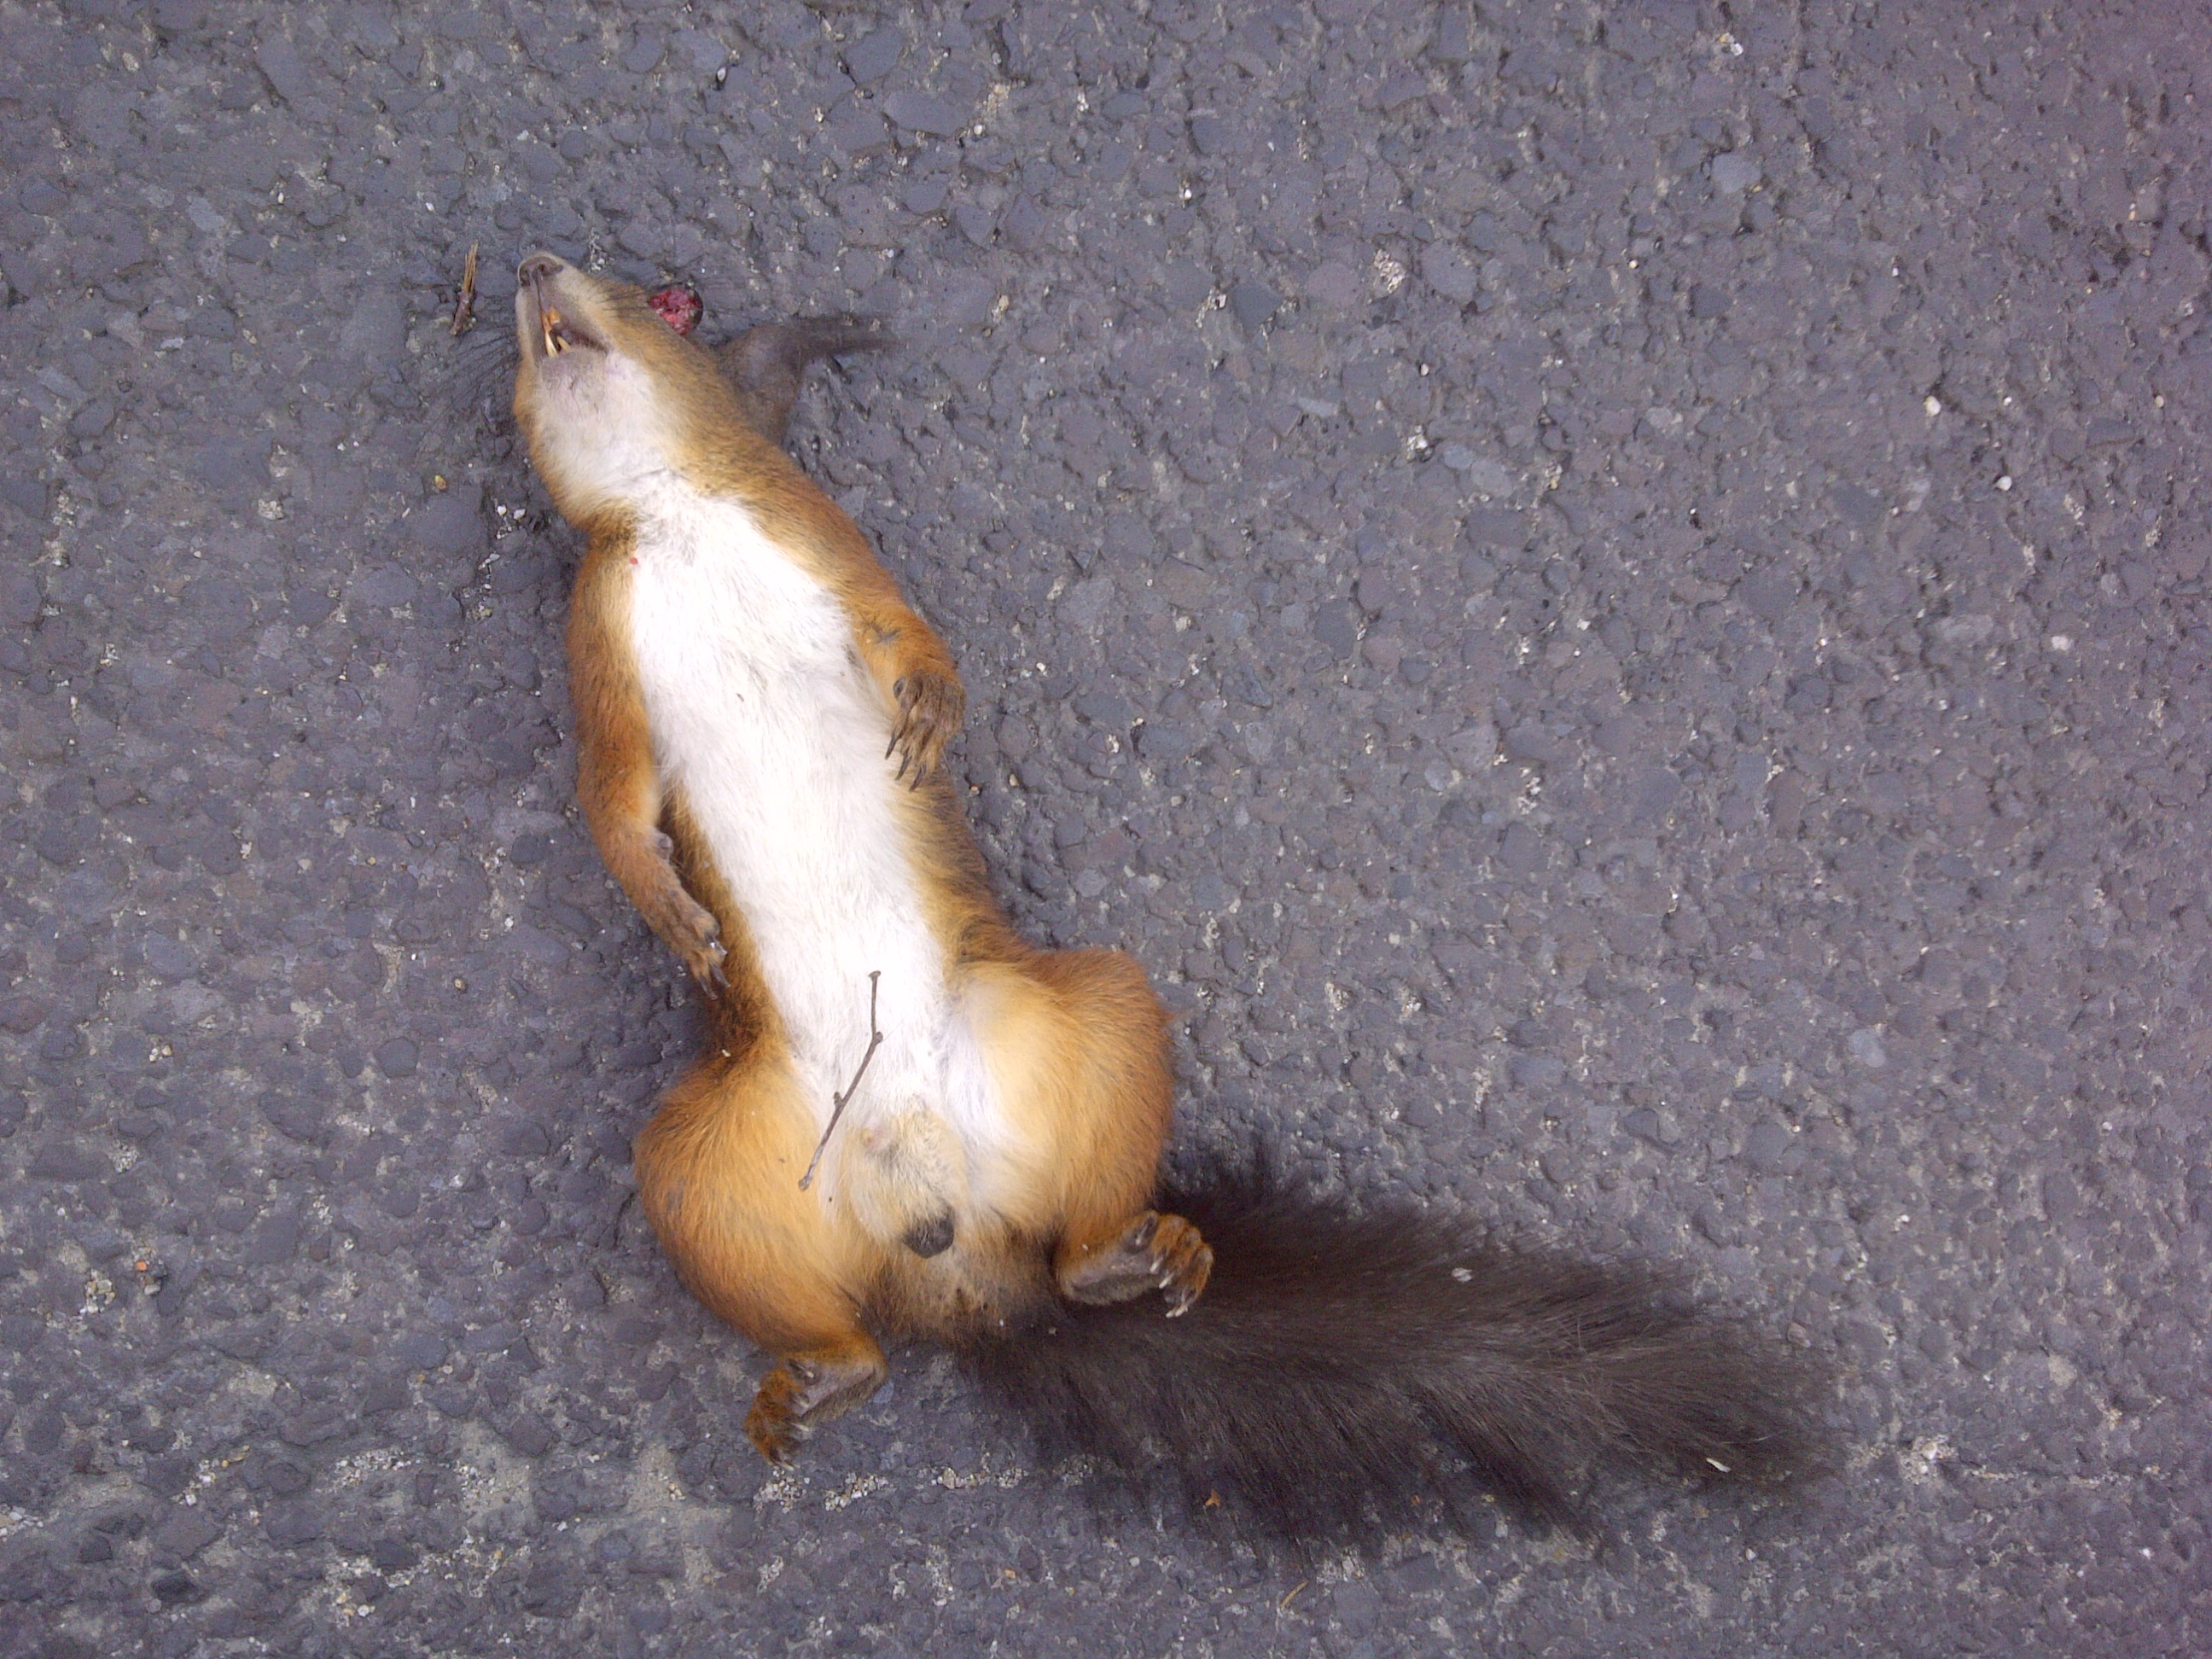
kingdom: Animalia
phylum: Chordata
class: Mammalia
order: Rodentia
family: Sciuridae
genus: Sciurus
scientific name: Sciurus vulgaris
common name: Eurasian red squirrel
